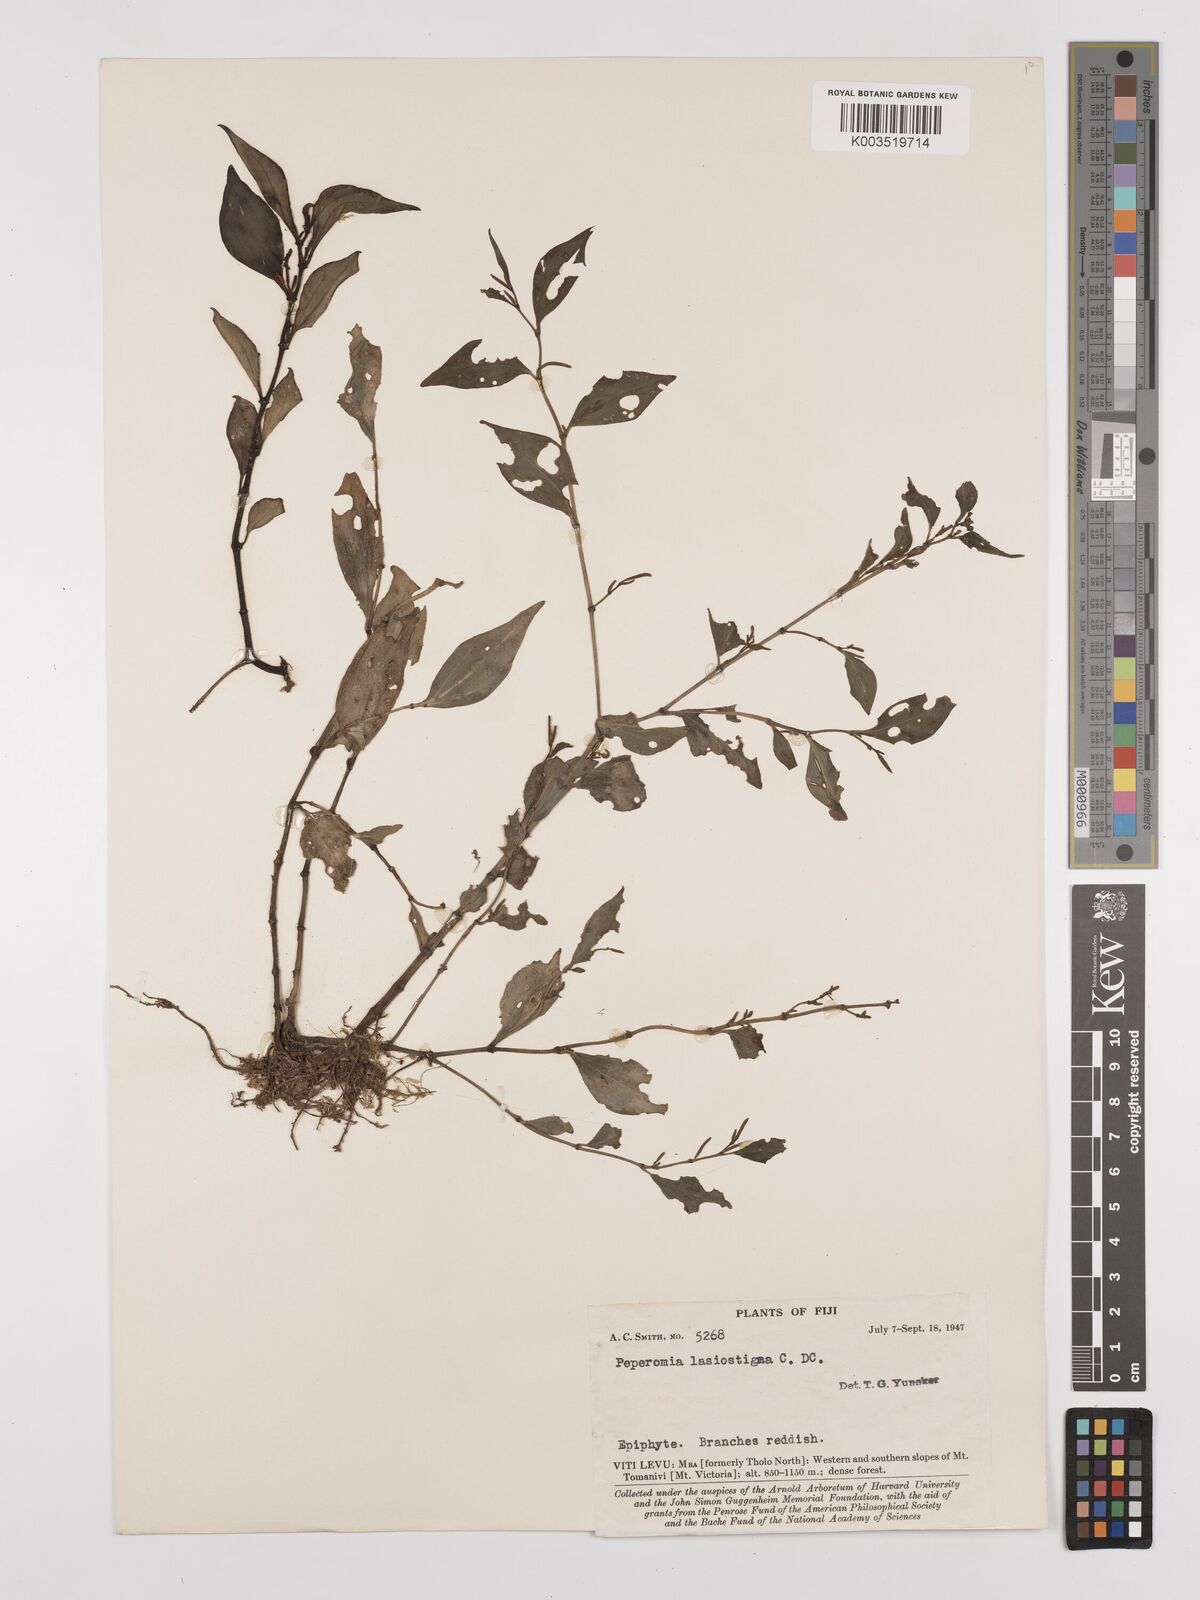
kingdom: Plantae
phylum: Tracheophyta
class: Magnoliopsida
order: Piperales
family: Piperaceae
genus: Peperomia
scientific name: Peperomia lasiostigma
